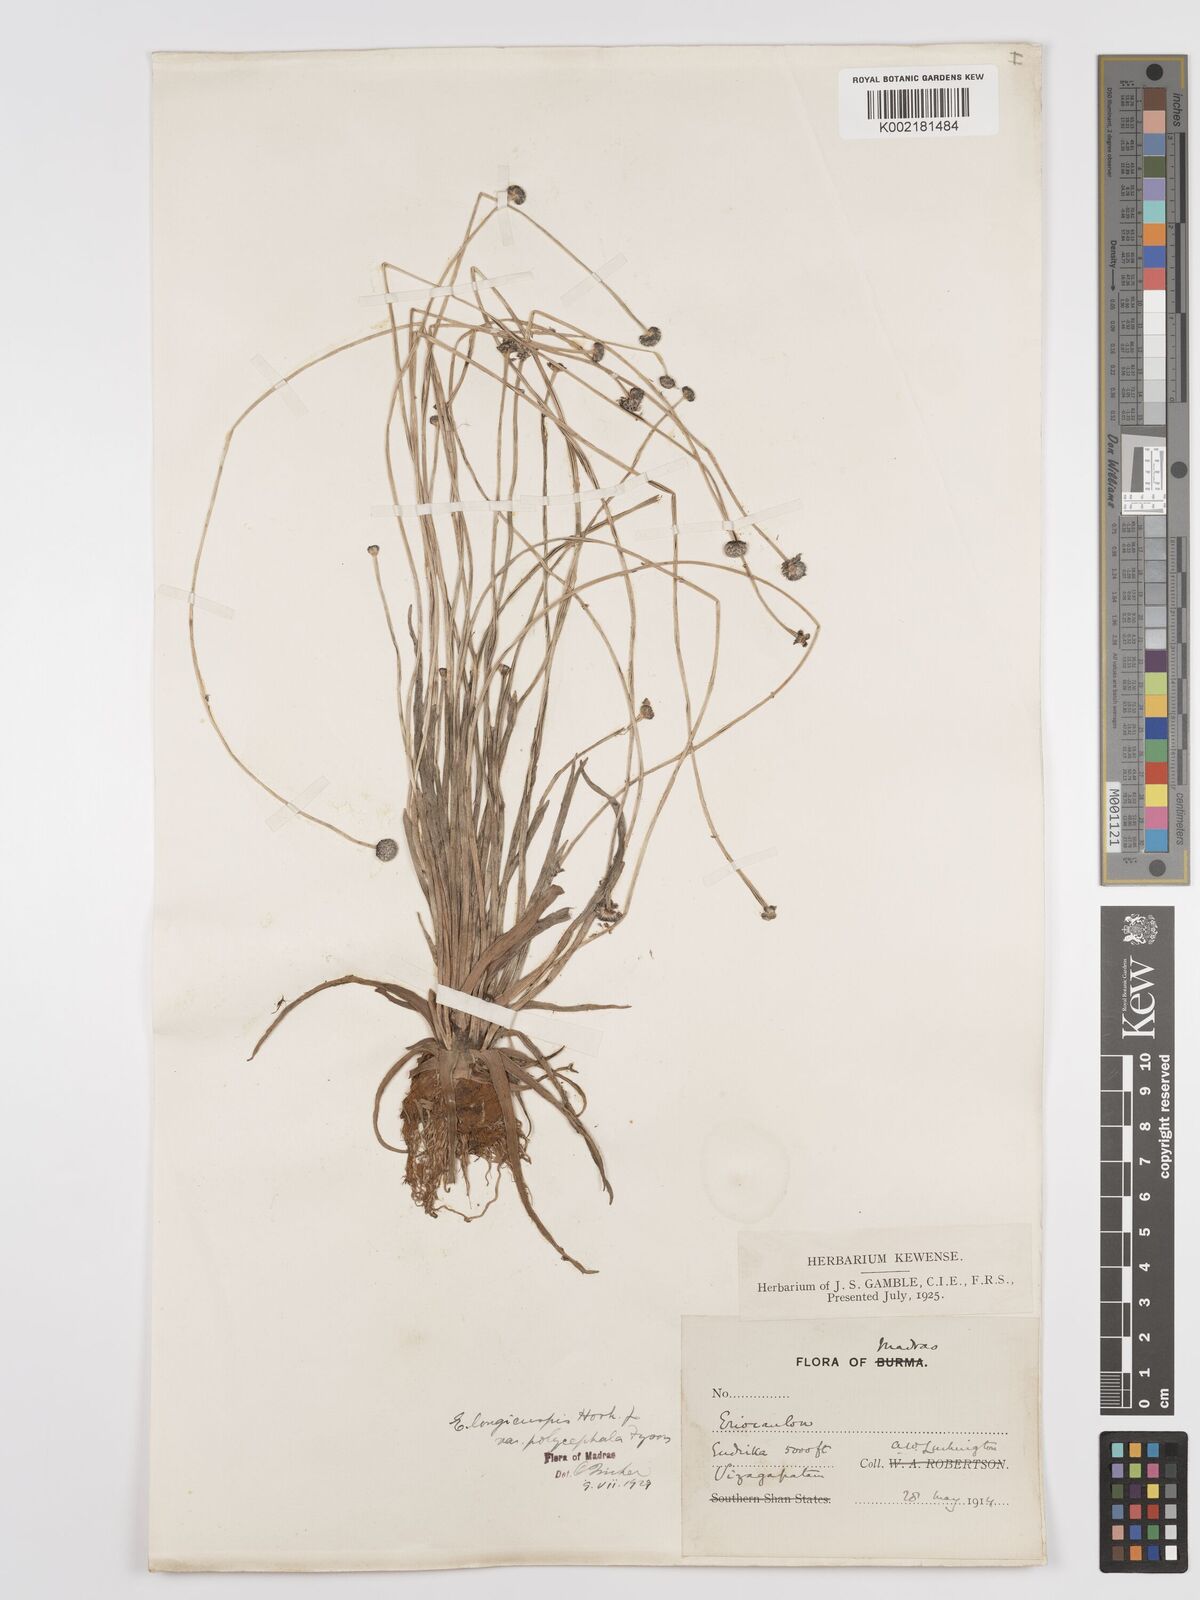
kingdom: Plantae
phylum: Tracheophyta
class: Liliopsida
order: Poales
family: Eriocaulaceae
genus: Eriocaulon
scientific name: Eriocaulon longicuspe
